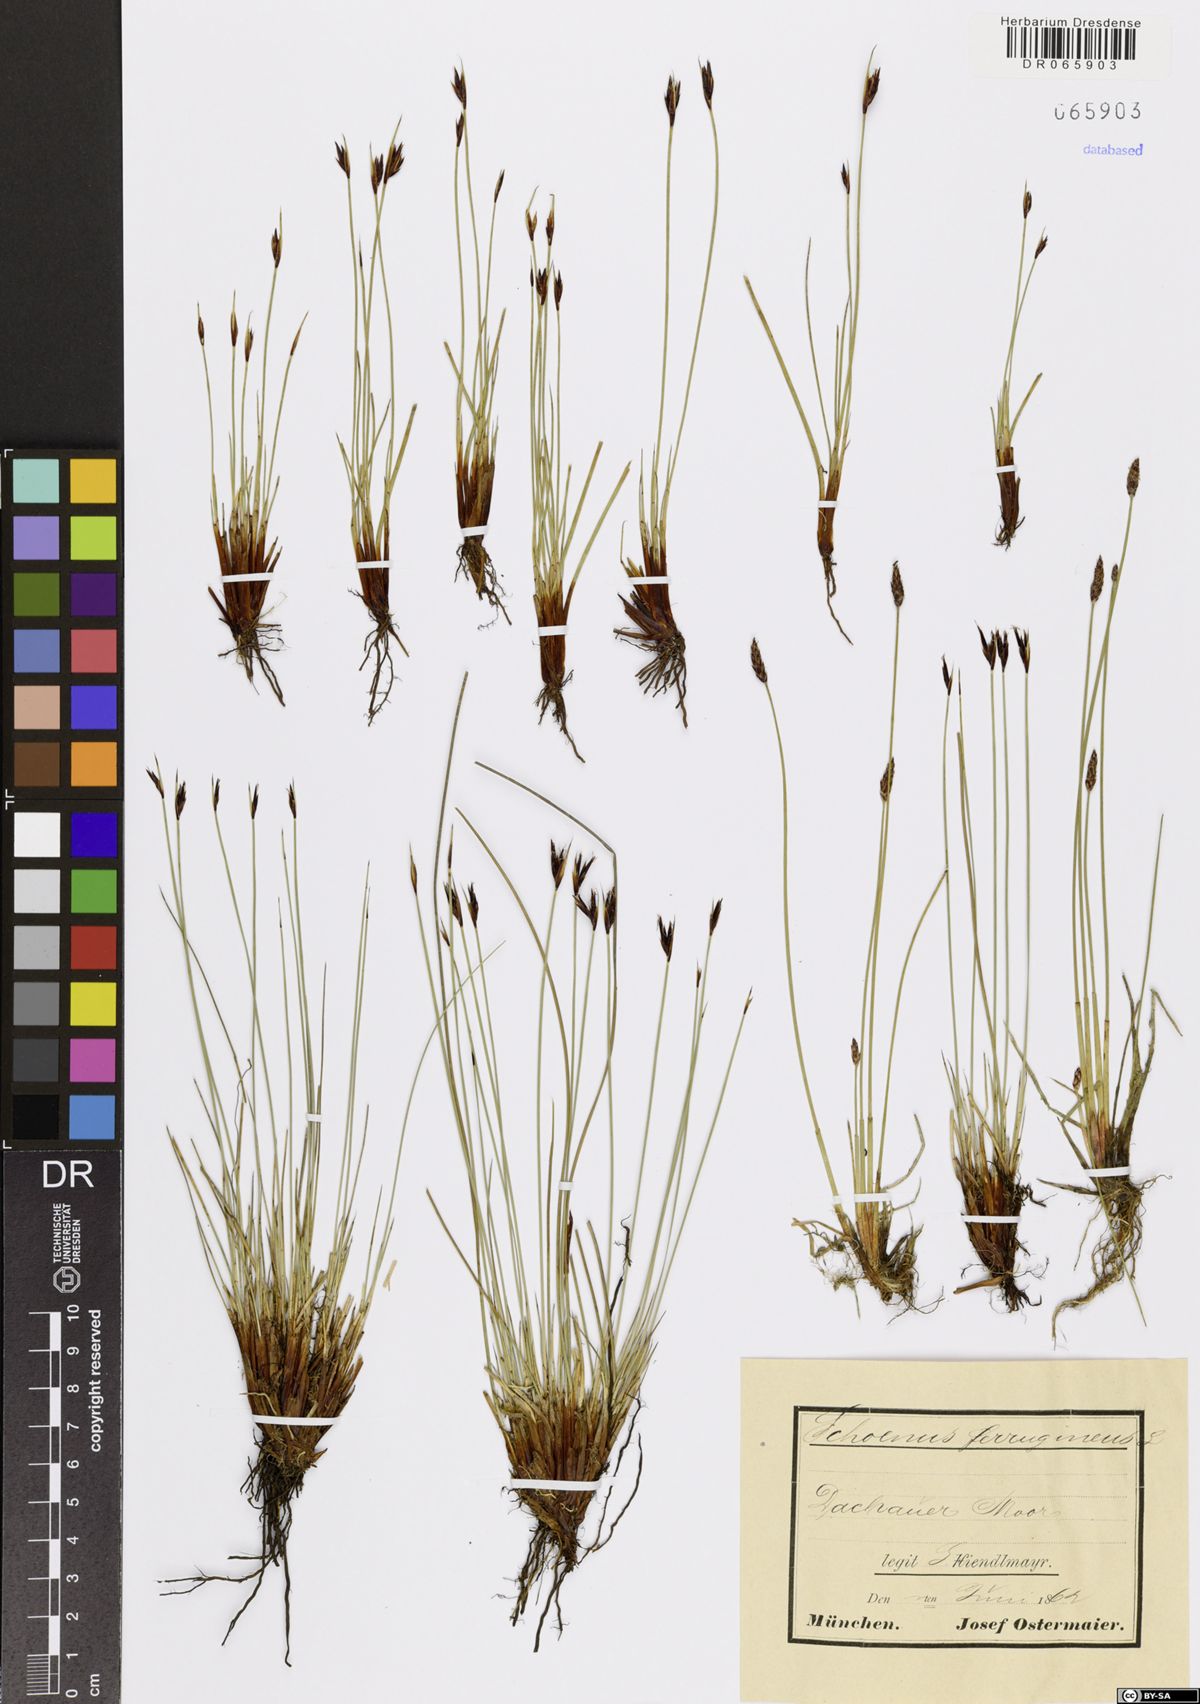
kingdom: Plantae
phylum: Tracheophyta
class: Liliopsida
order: Poales
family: Cyperaceae
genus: Schoenus
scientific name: Schoenus ferrugineus
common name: Brown bog-rush
